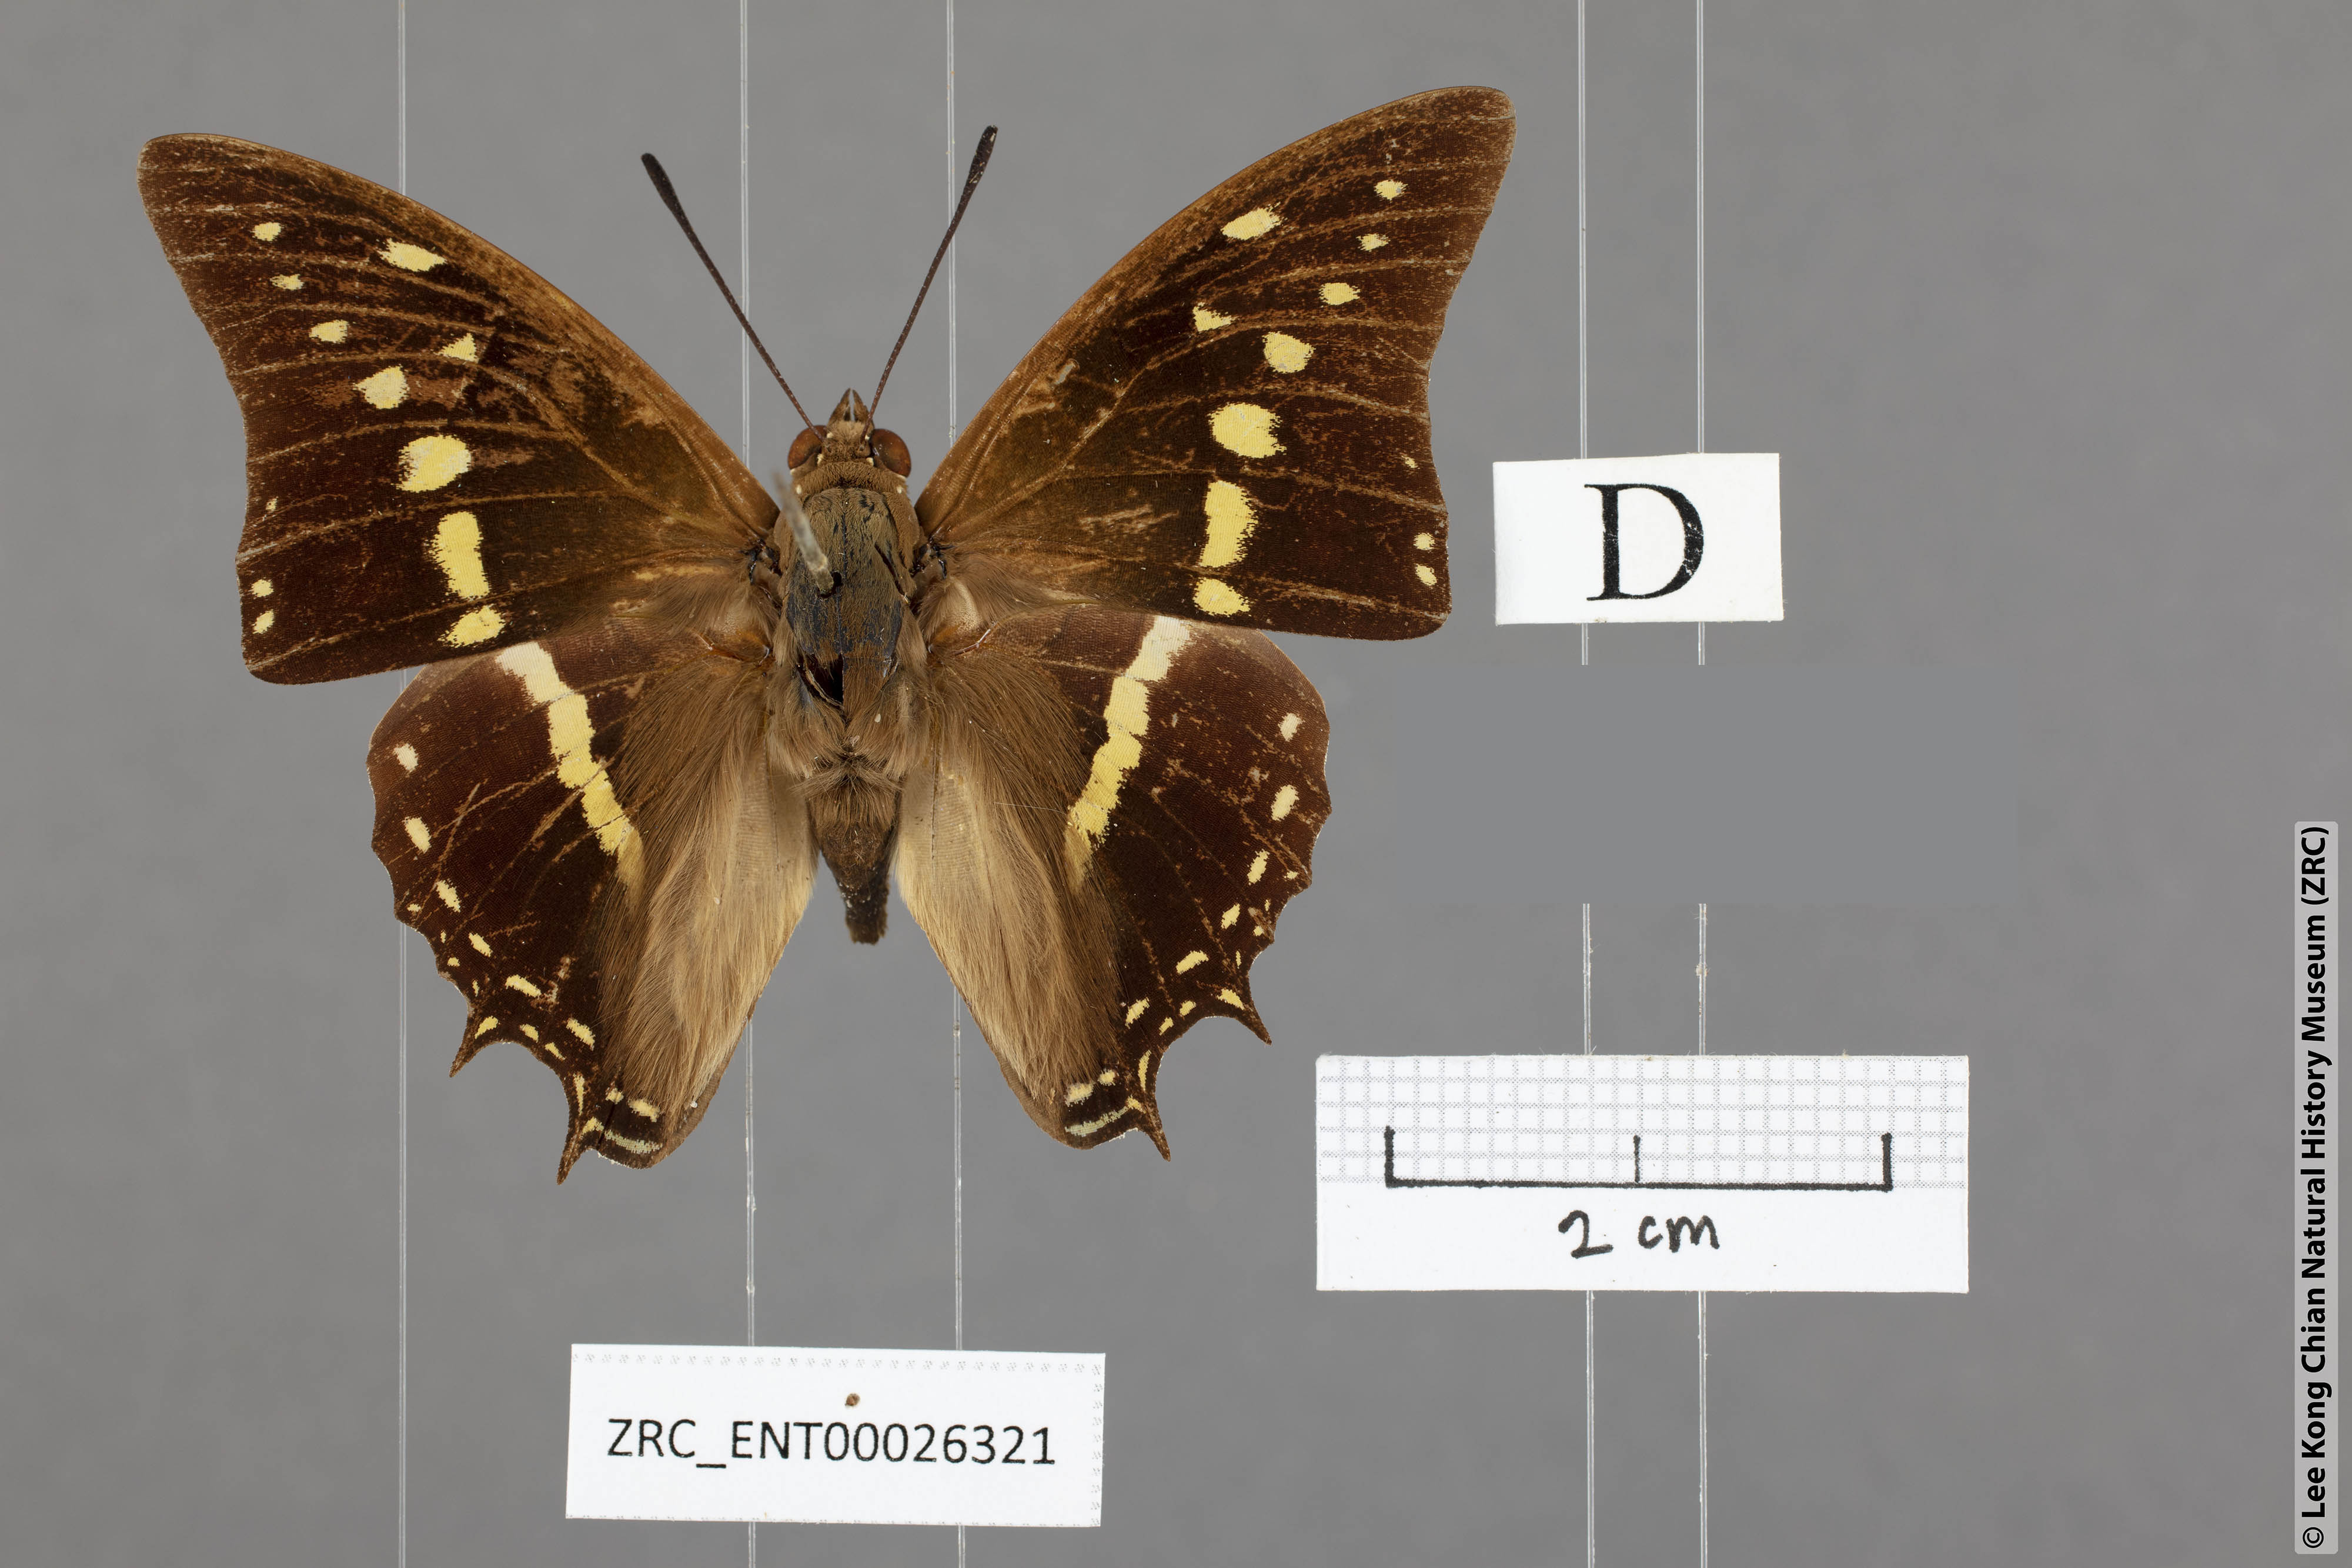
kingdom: Animalia
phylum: Arthropoda
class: Insecta
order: Lepidoptera
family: Nymphalidae
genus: Charaxes
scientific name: Charaxes solon
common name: Black rajah
